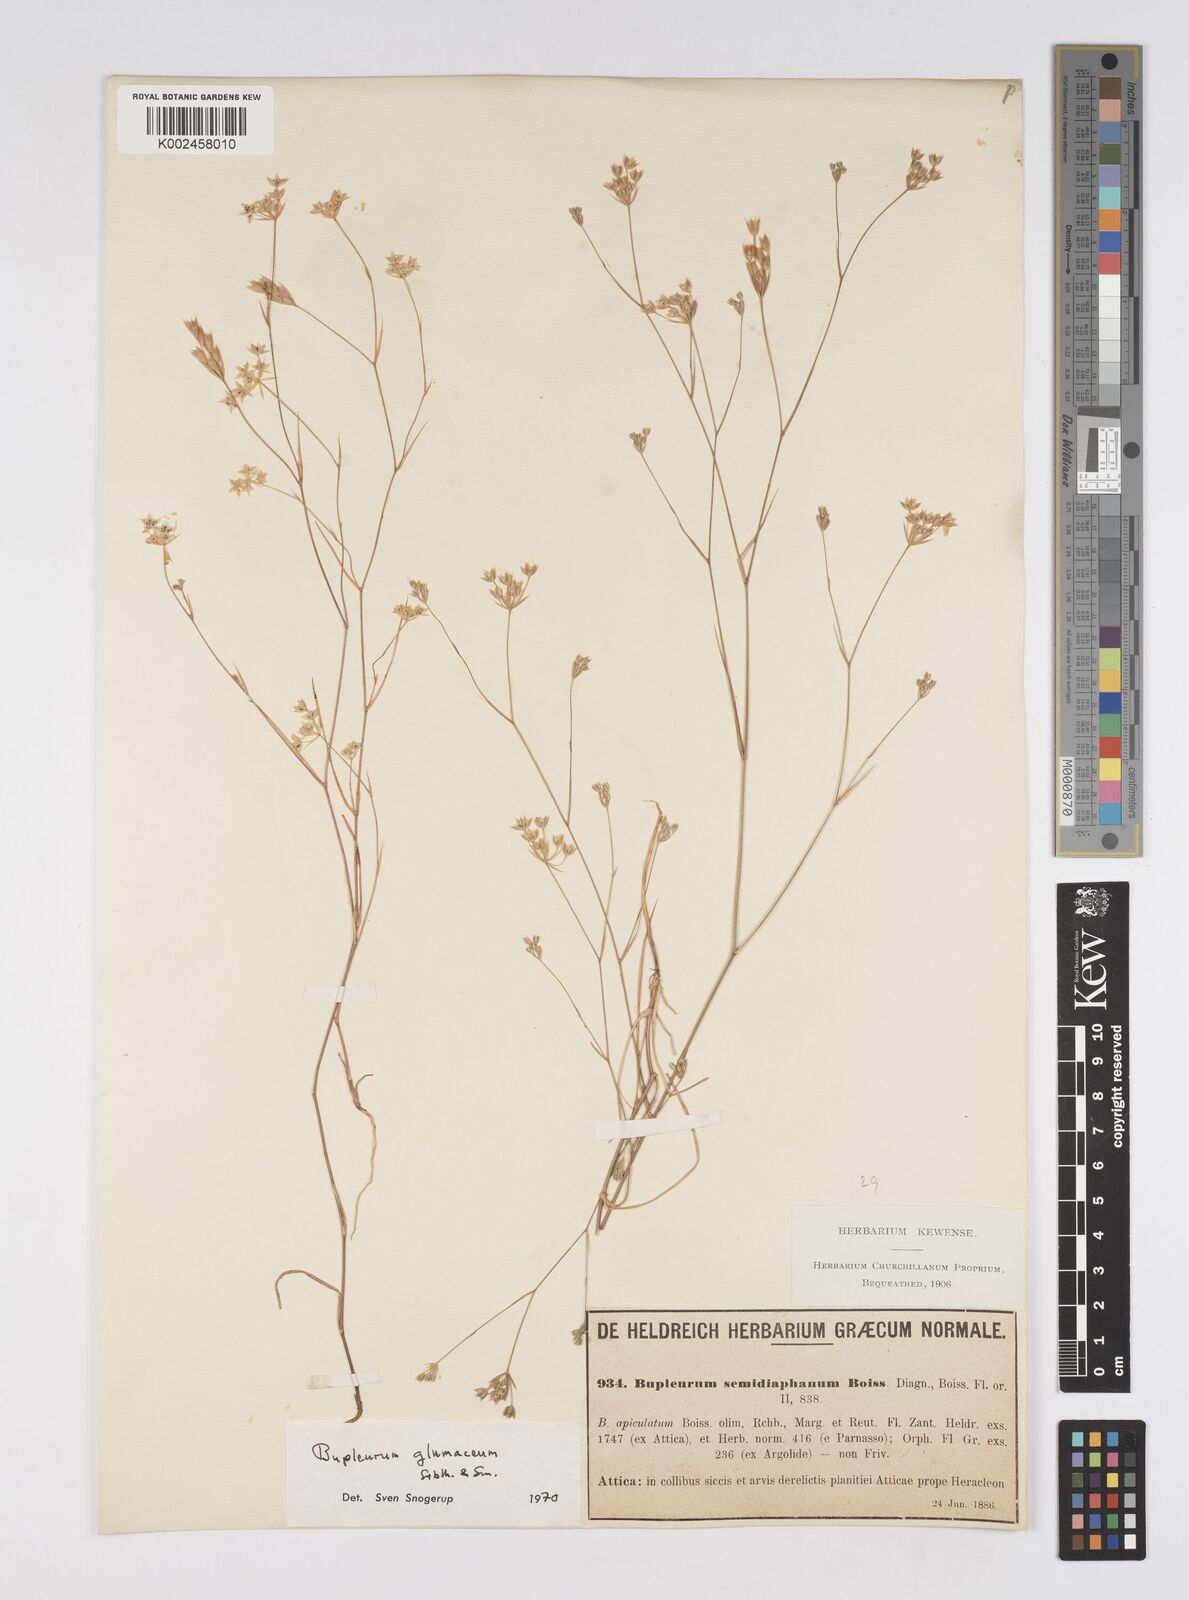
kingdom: Plantae
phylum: Tracheophyta
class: Magnoliopsida
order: Apiales
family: Apiaceae
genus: Bupleurum
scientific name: Bupleurum glumaceum
